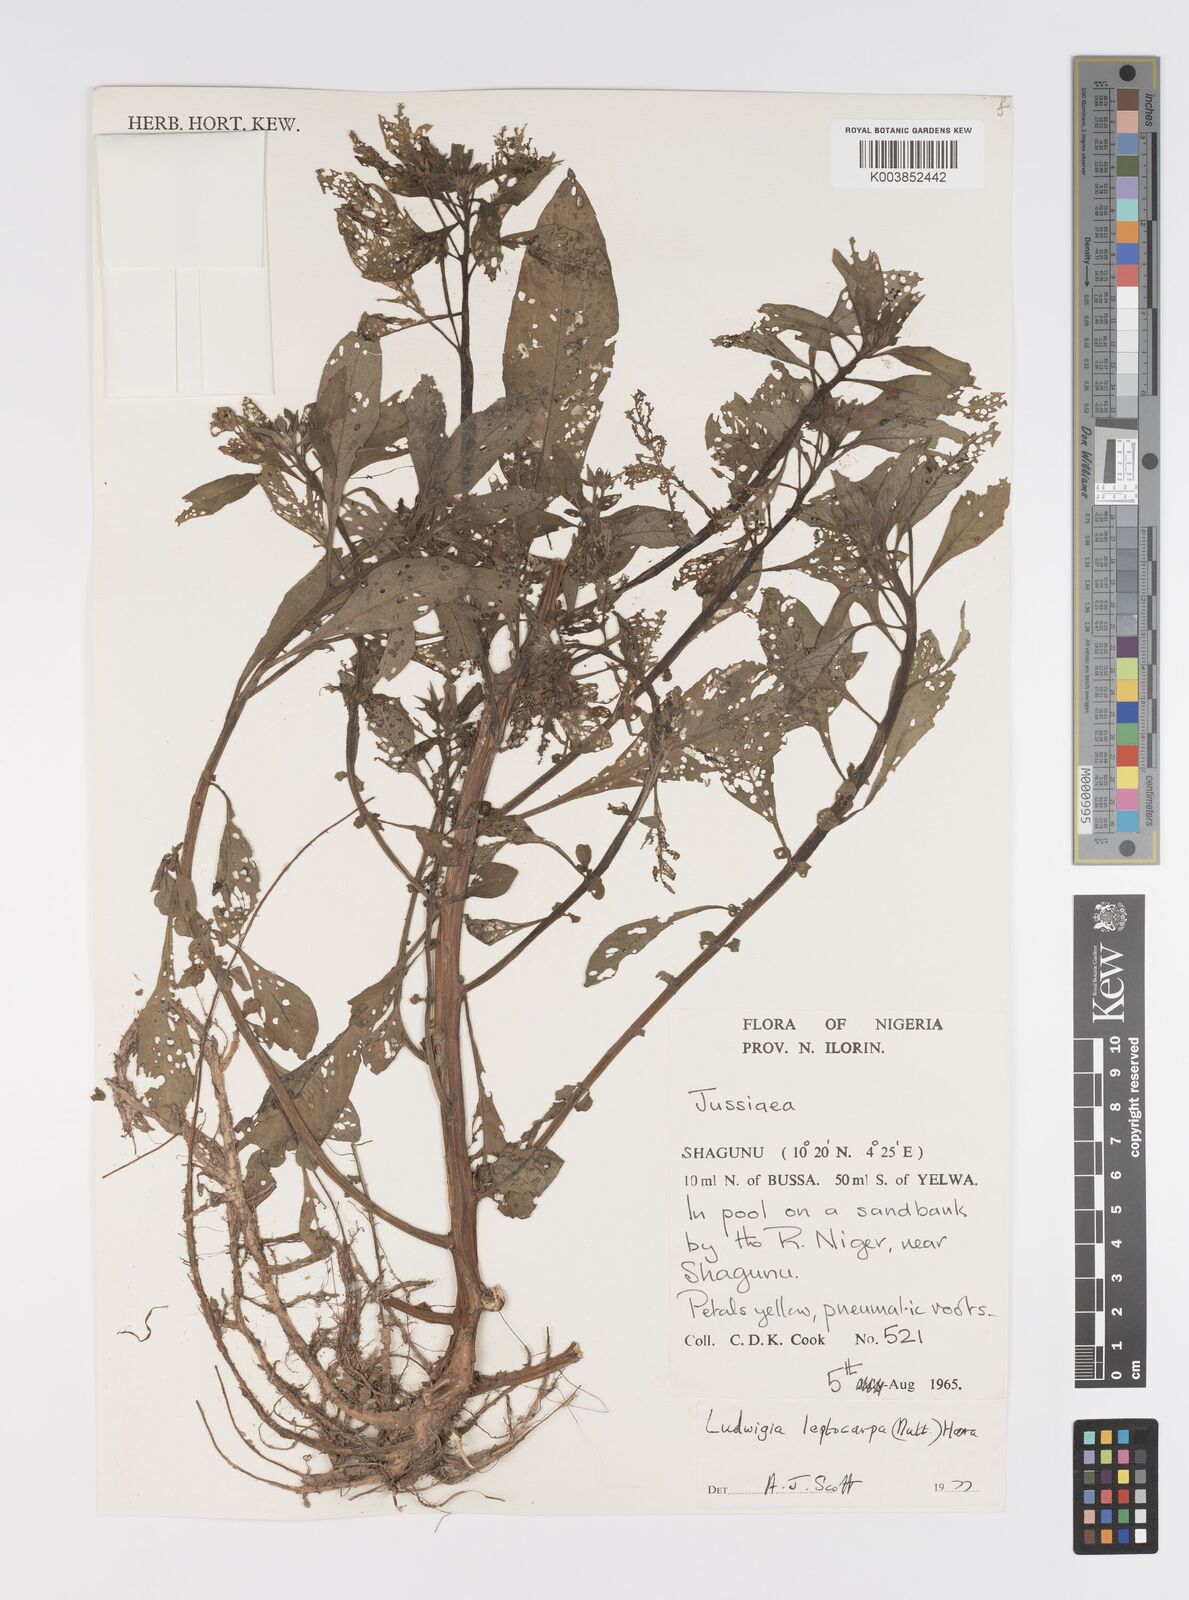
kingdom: Plantae
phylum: Tracheophyta
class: Magnoliopsida
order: Myrtales
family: Onagraceae
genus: Ludwigia
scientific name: Ludwigia leptocarpa
